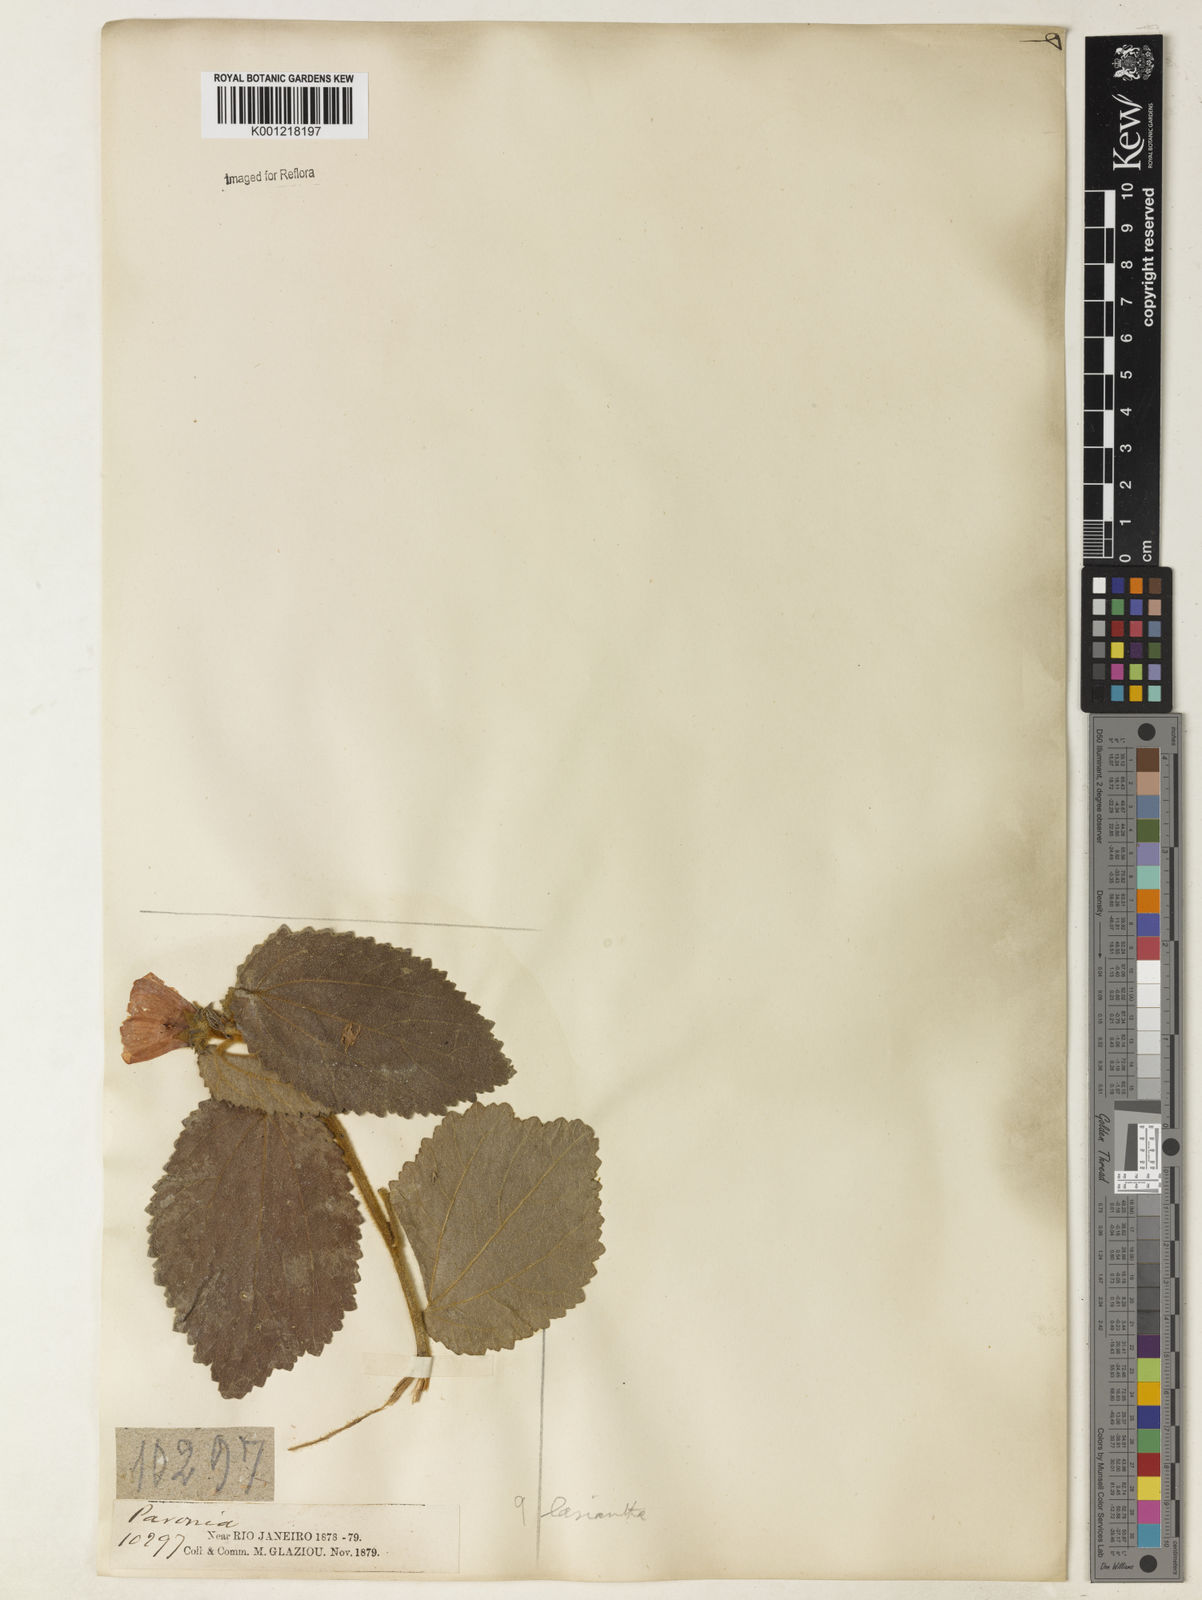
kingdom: Plantae
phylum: Tracheophyta
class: Magnoliopsida
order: Malvales
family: Malvaceae
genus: Peltaea
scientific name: Peltaea
